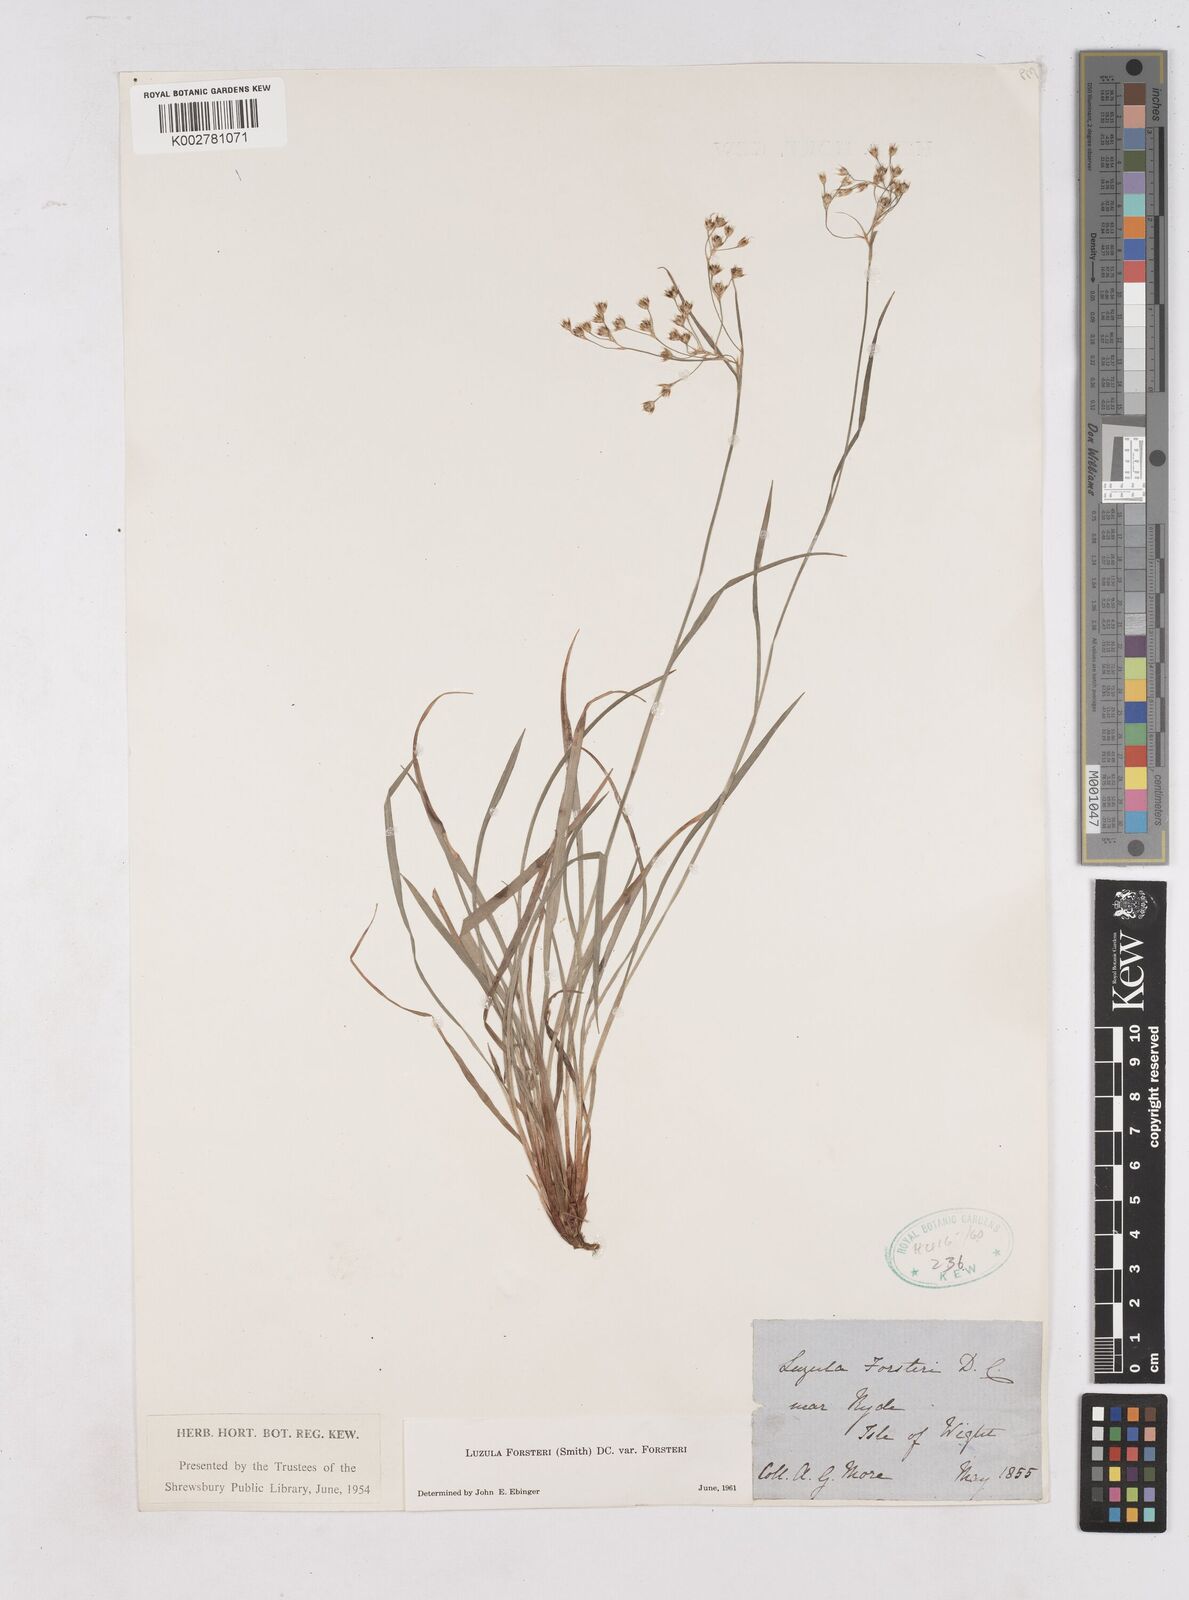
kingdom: Plantae
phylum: Tracheophyta
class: Liliopsida
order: Poales
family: Juncaceae
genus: Luzula
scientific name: Luzula forsteri
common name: Southern wood-rush
